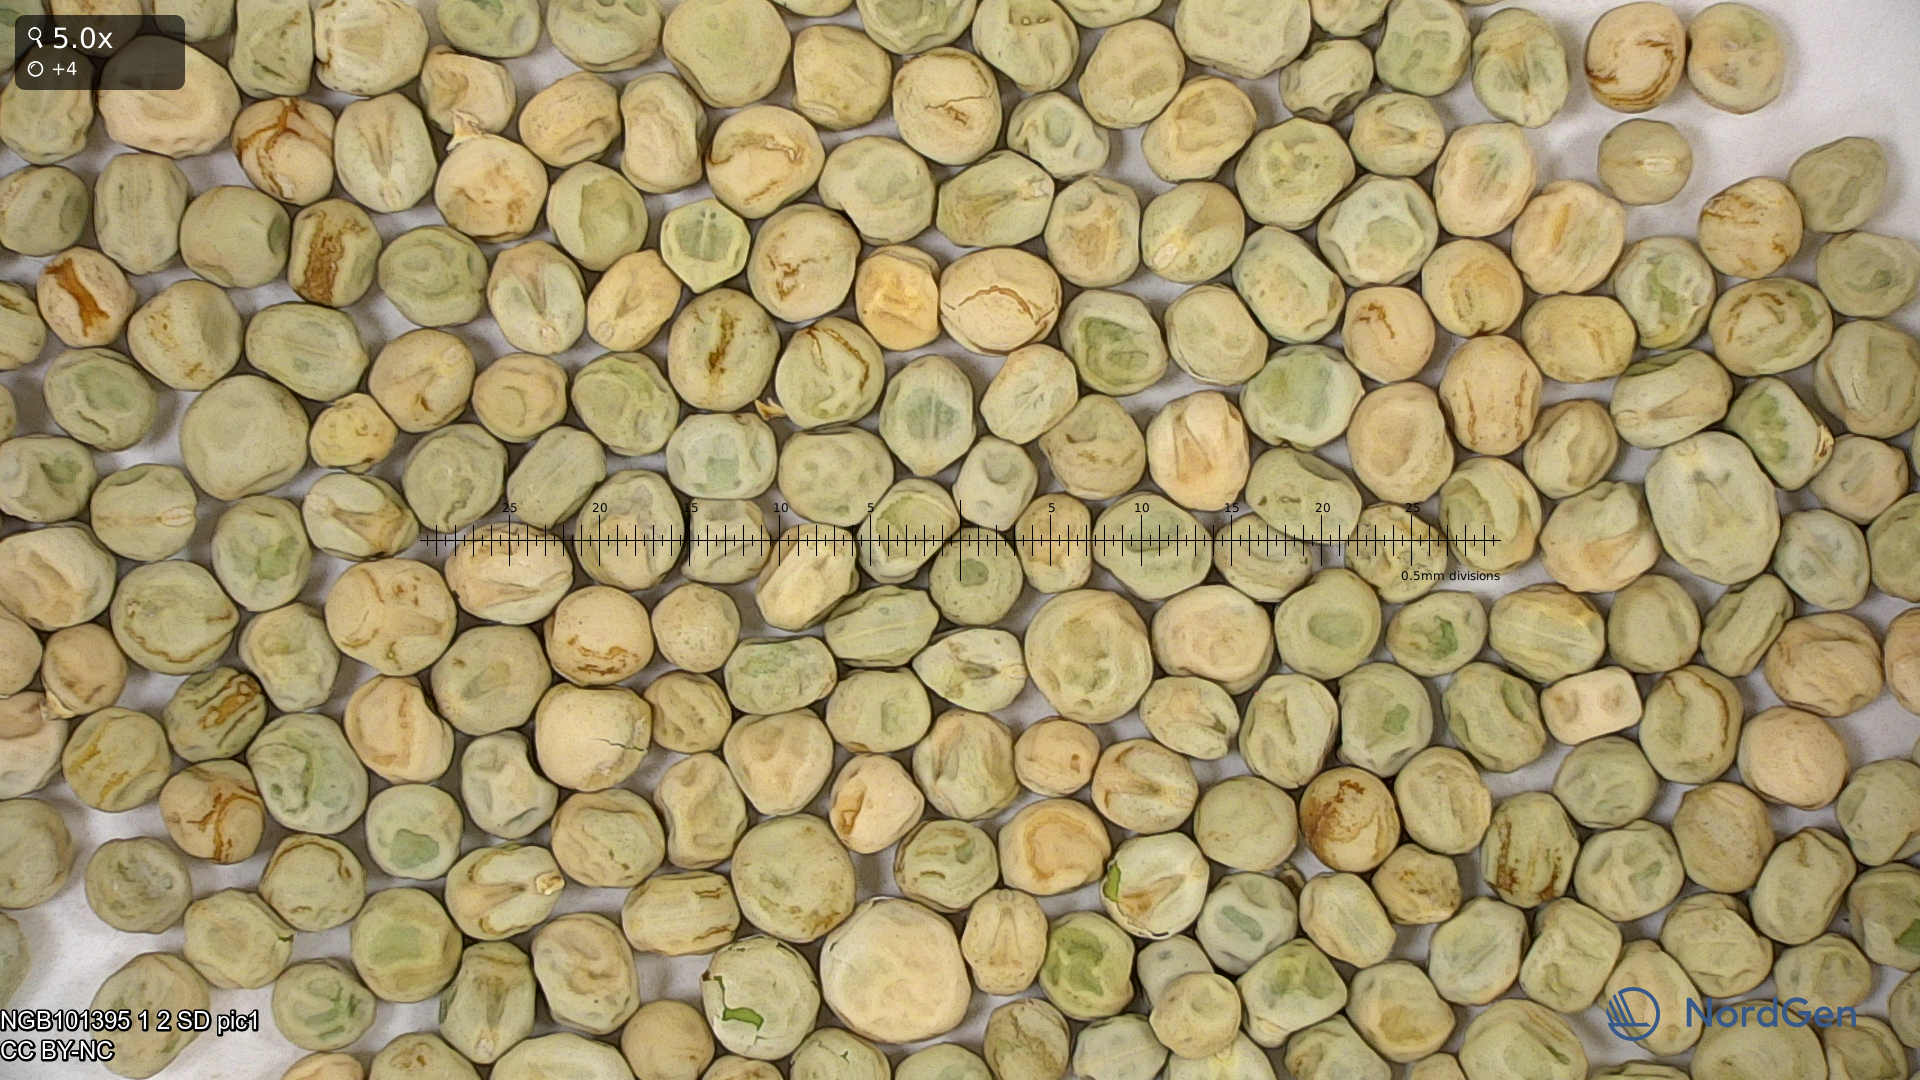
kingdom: Plantae
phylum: Tracheophyta
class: Magnoliopsida
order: Fabales
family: Fabaceae
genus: Lathyrus
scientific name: Lathyrus oleraceus
